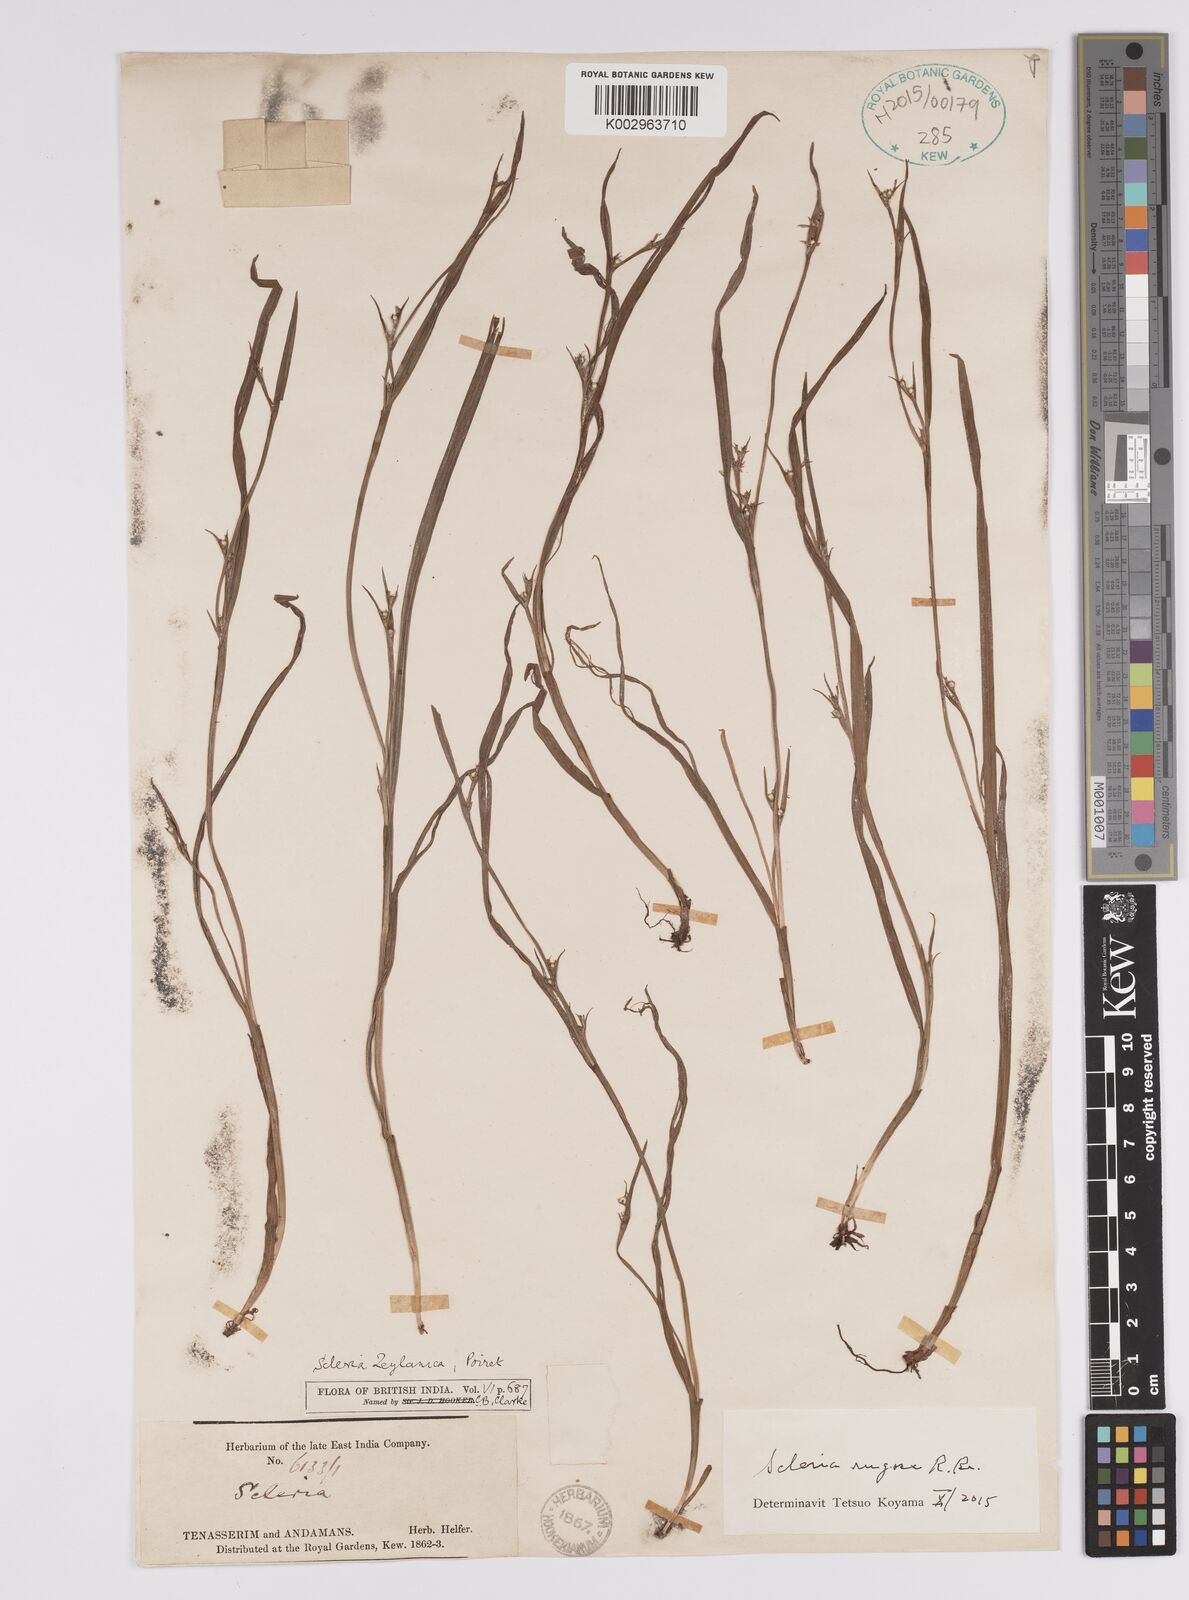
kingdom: Plantae
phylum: Tracheophyta
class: Liliopsida
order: Poales
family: Cyperaceae
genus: Scleria
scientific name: Scleria rugosa
